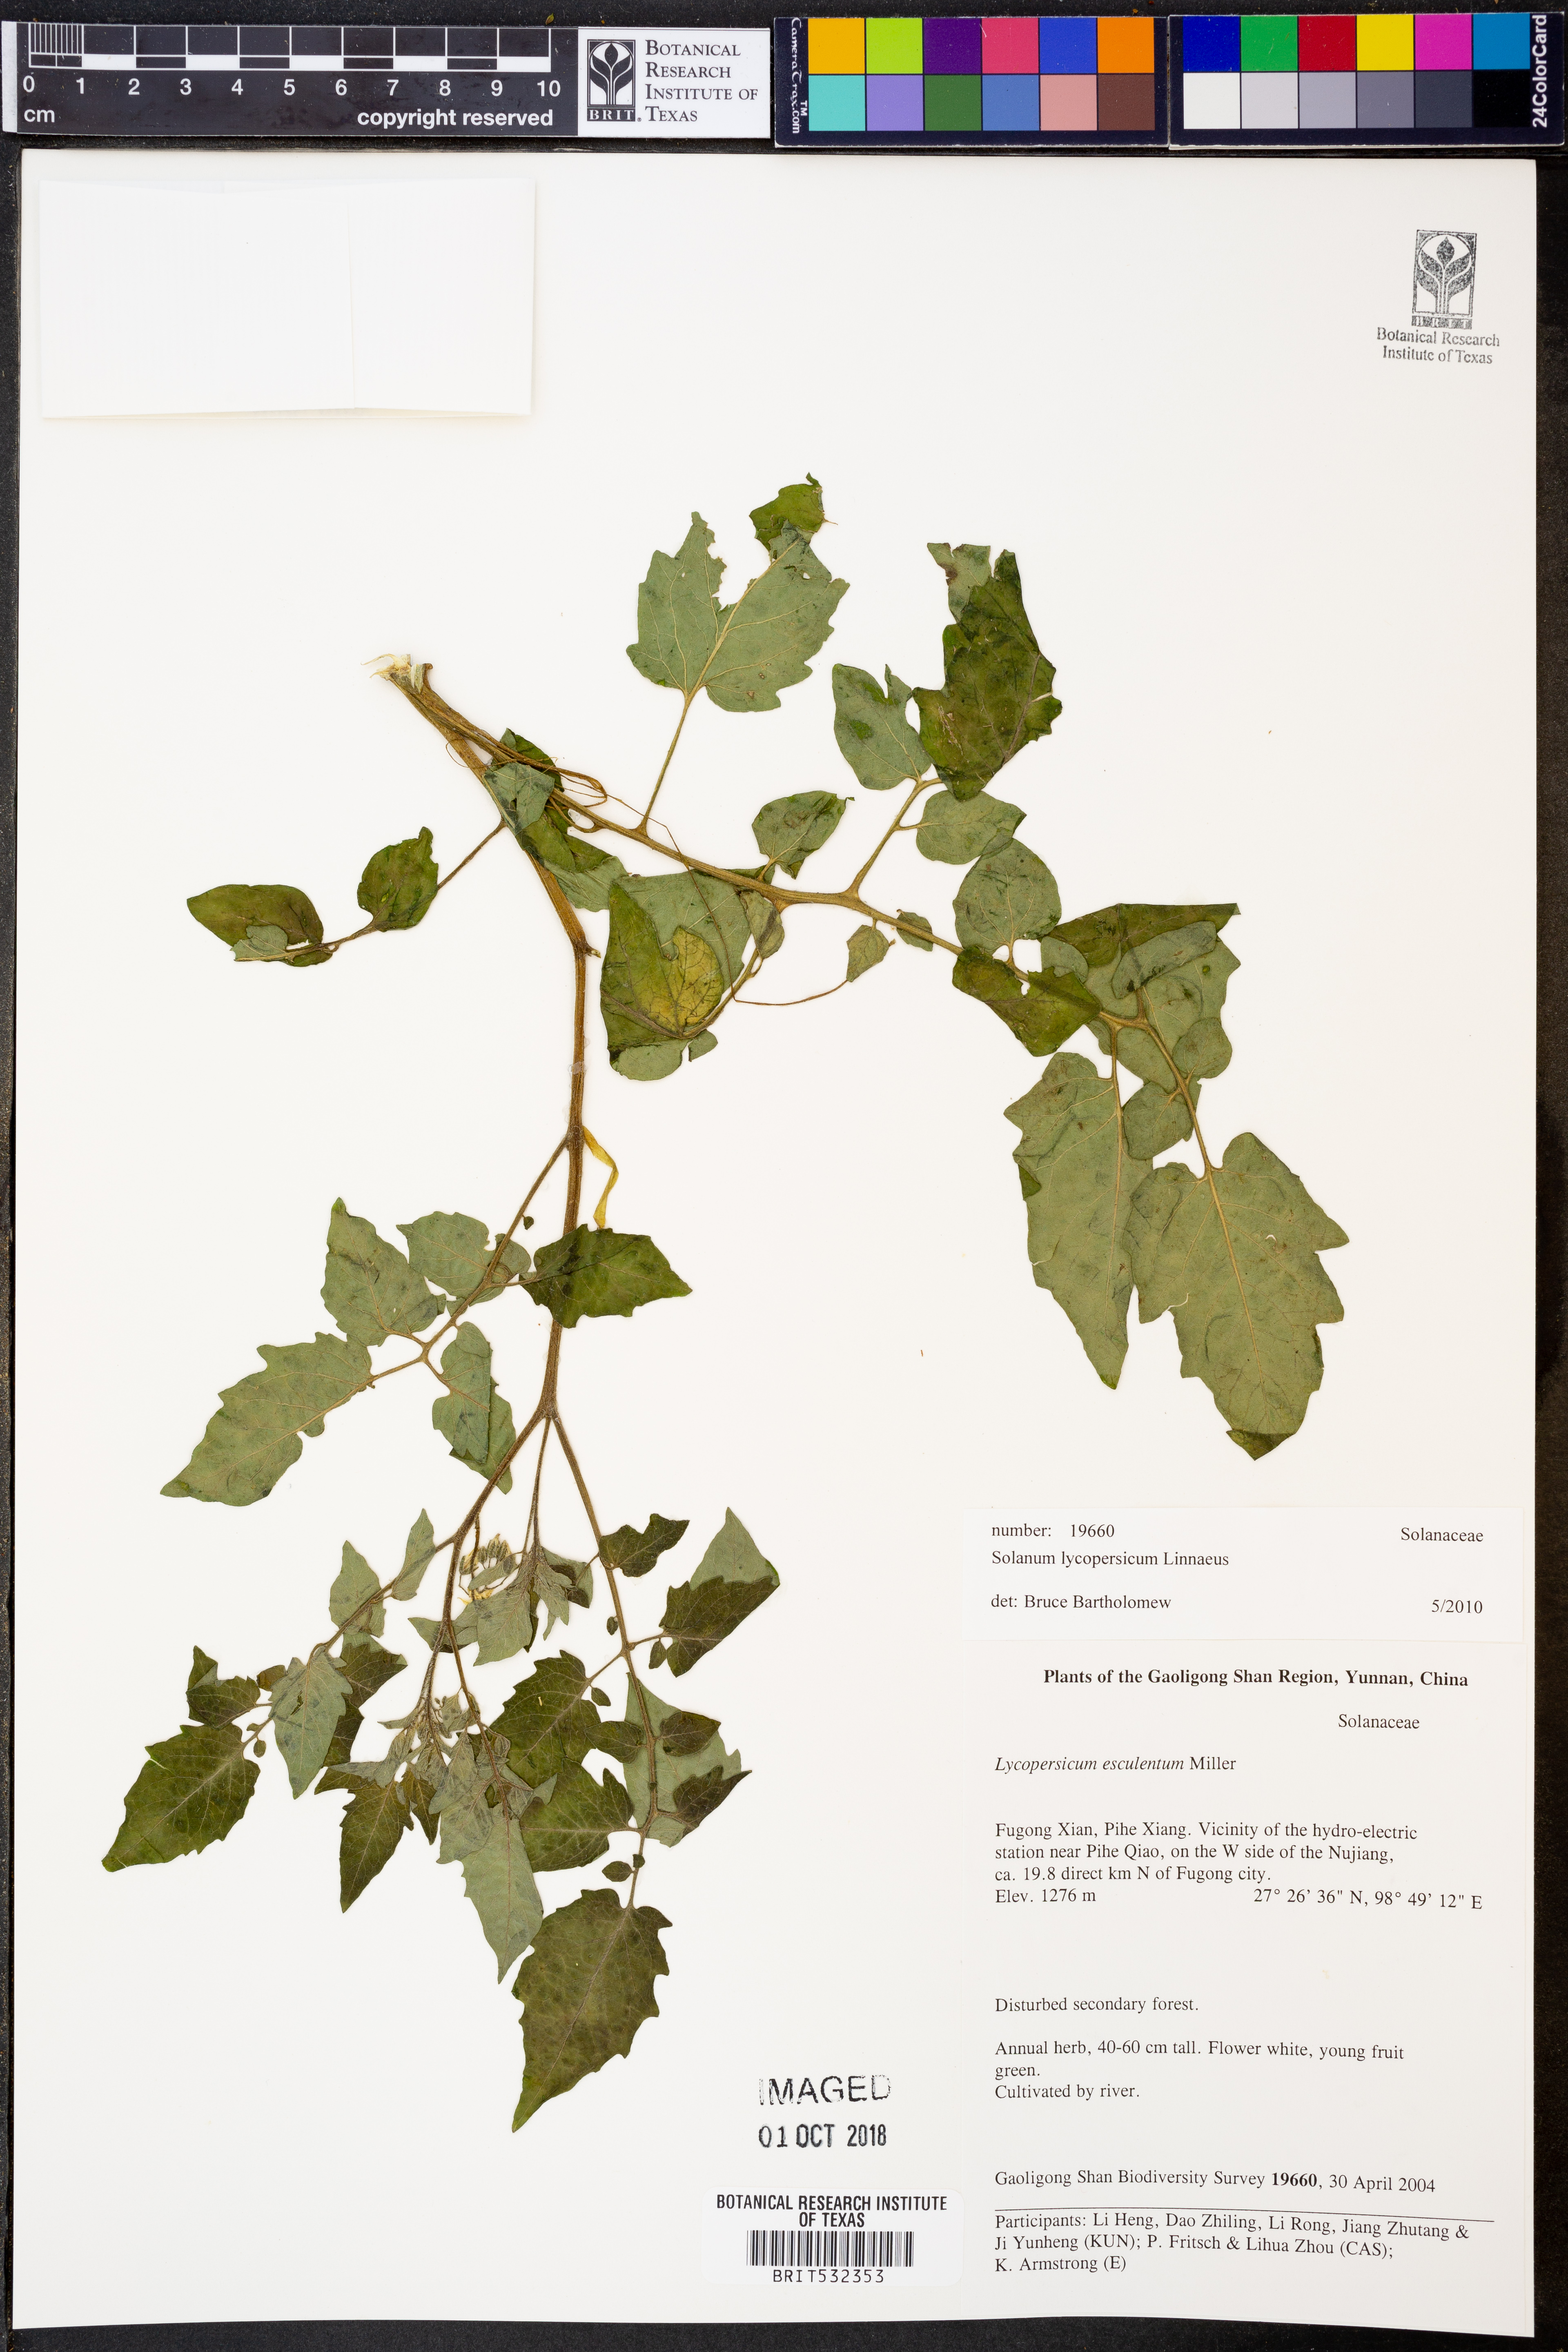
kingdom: Plantae
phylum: Tracheophyta
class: Magnoliopsida
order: Solanales
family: Solanaceae
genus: Solanum
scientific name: Solanum lycopersicum
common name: Garden tomato
